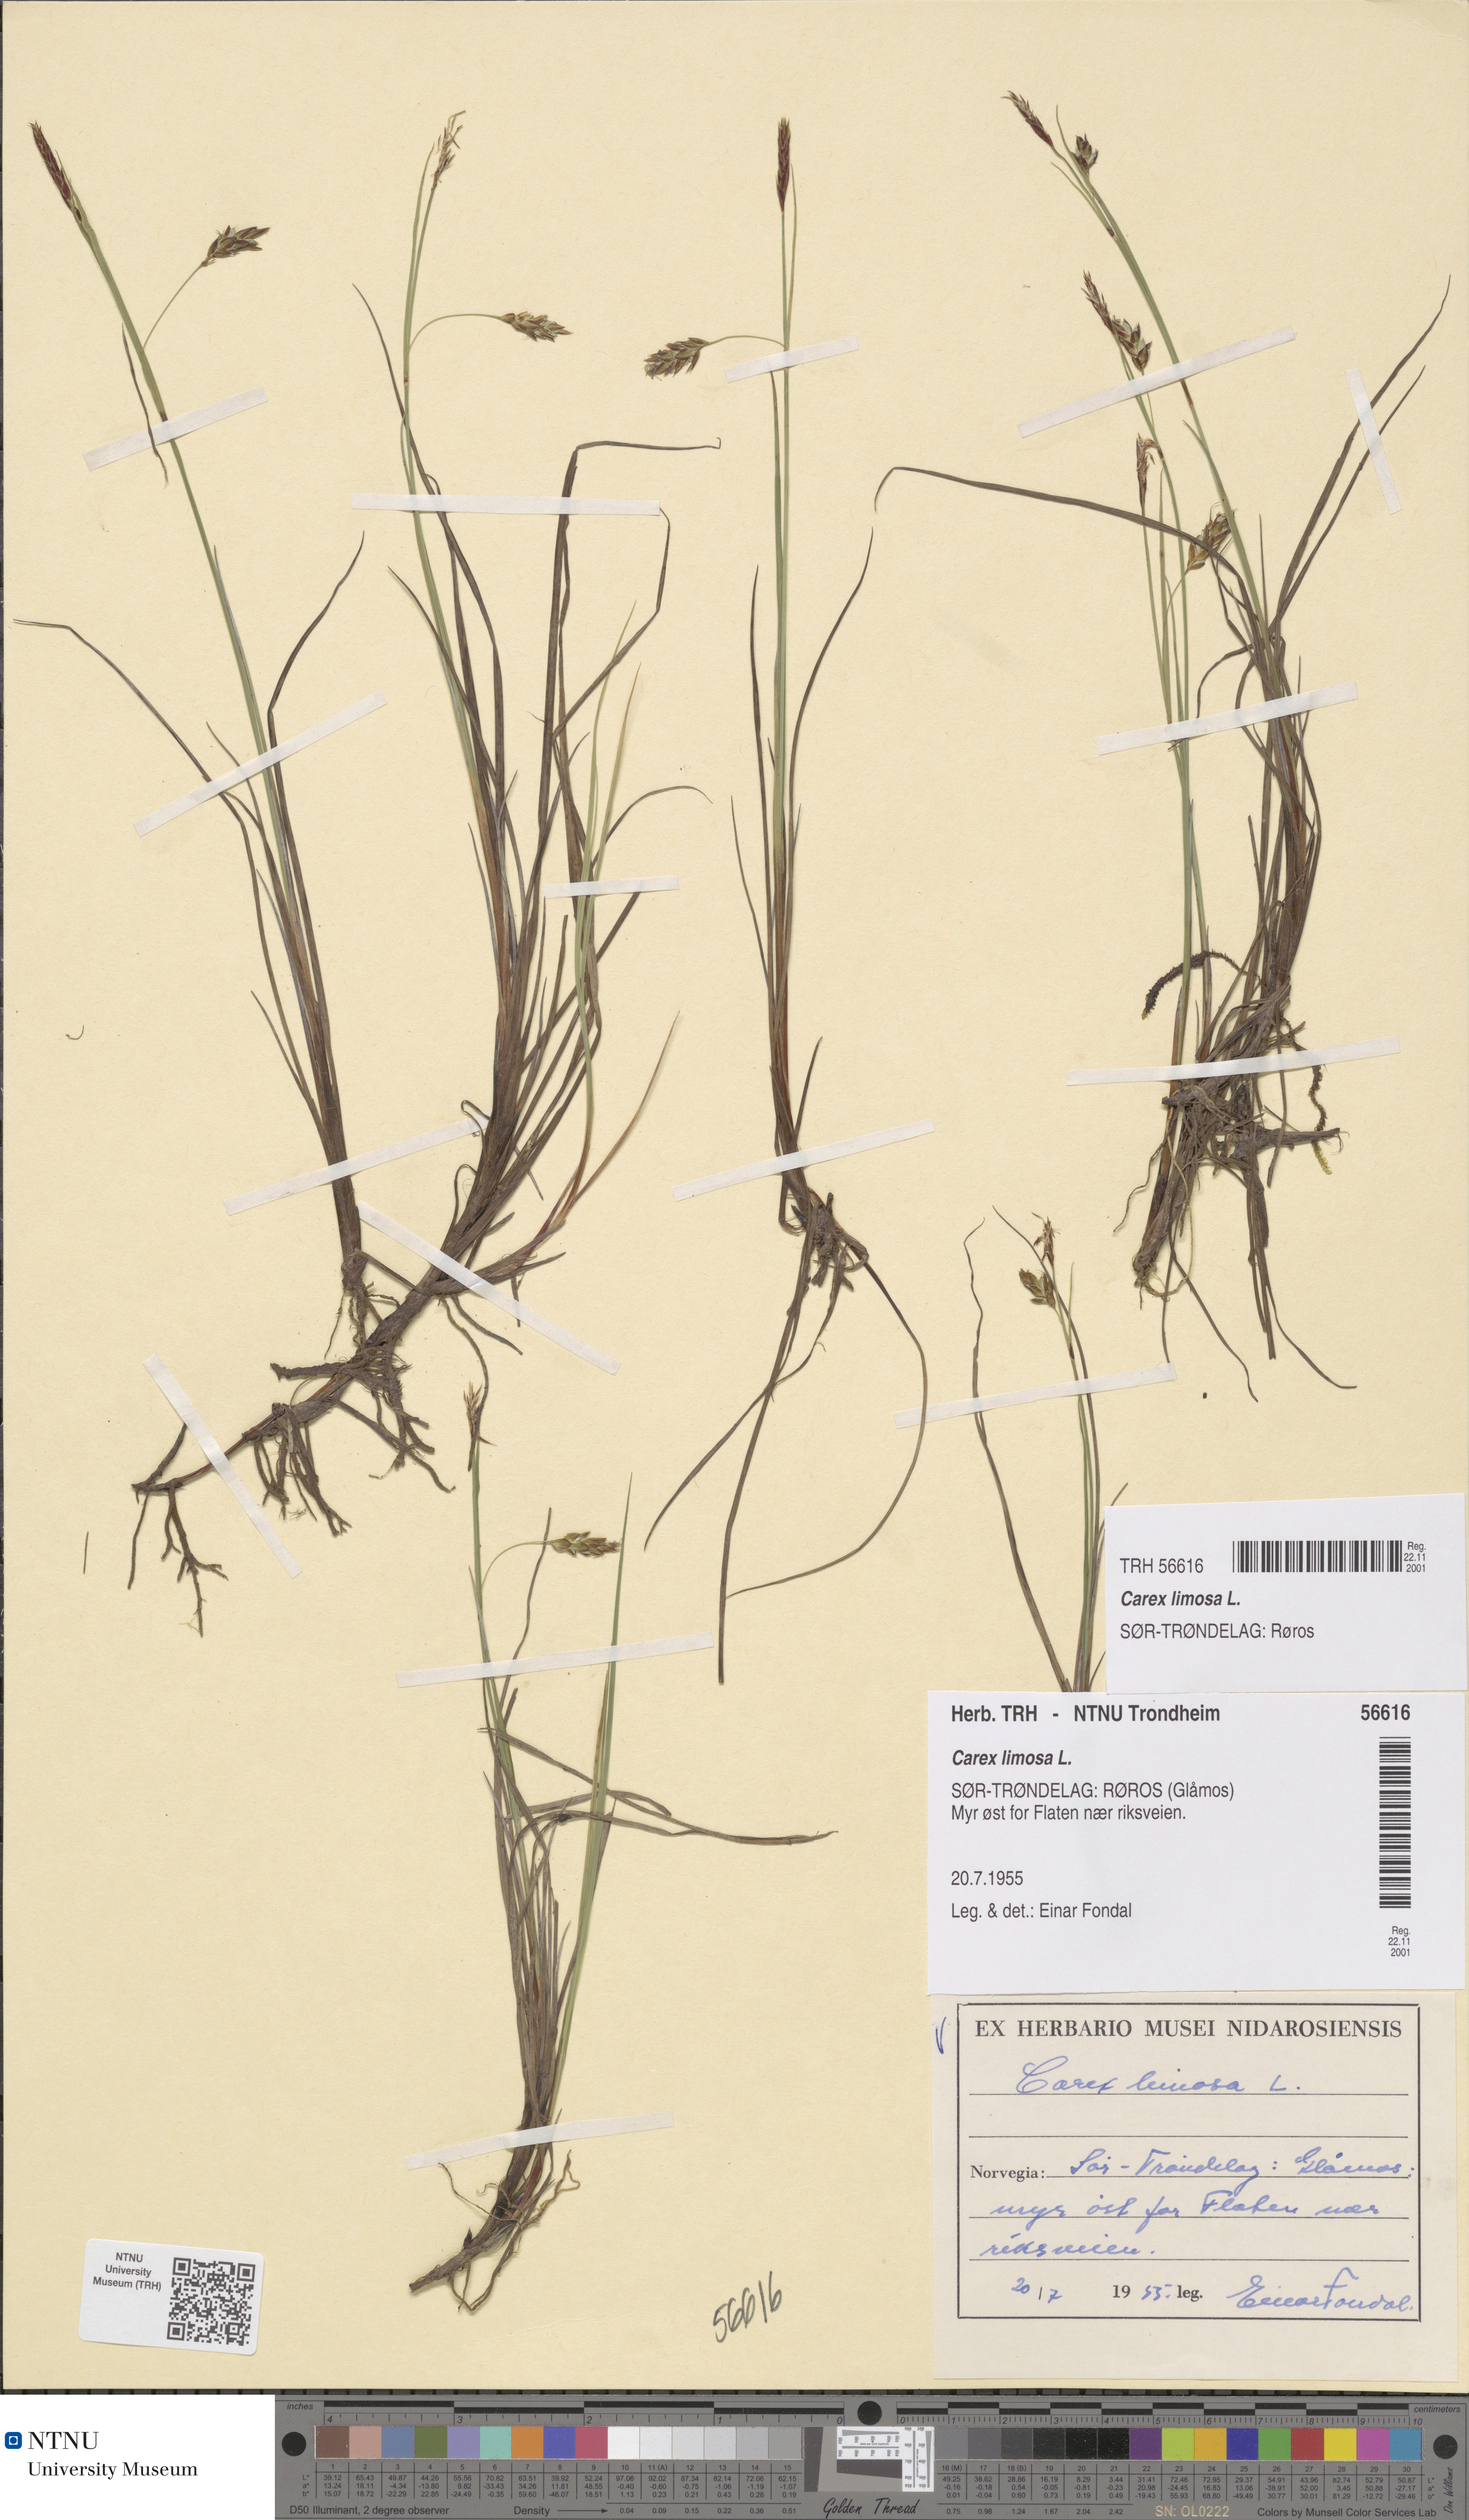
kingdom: Plantae
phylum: Tracheophyta
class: Liliopsida
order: Poales
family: Cyperaceae
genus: Carex
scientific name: Carex limosa
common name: Bog sedge
